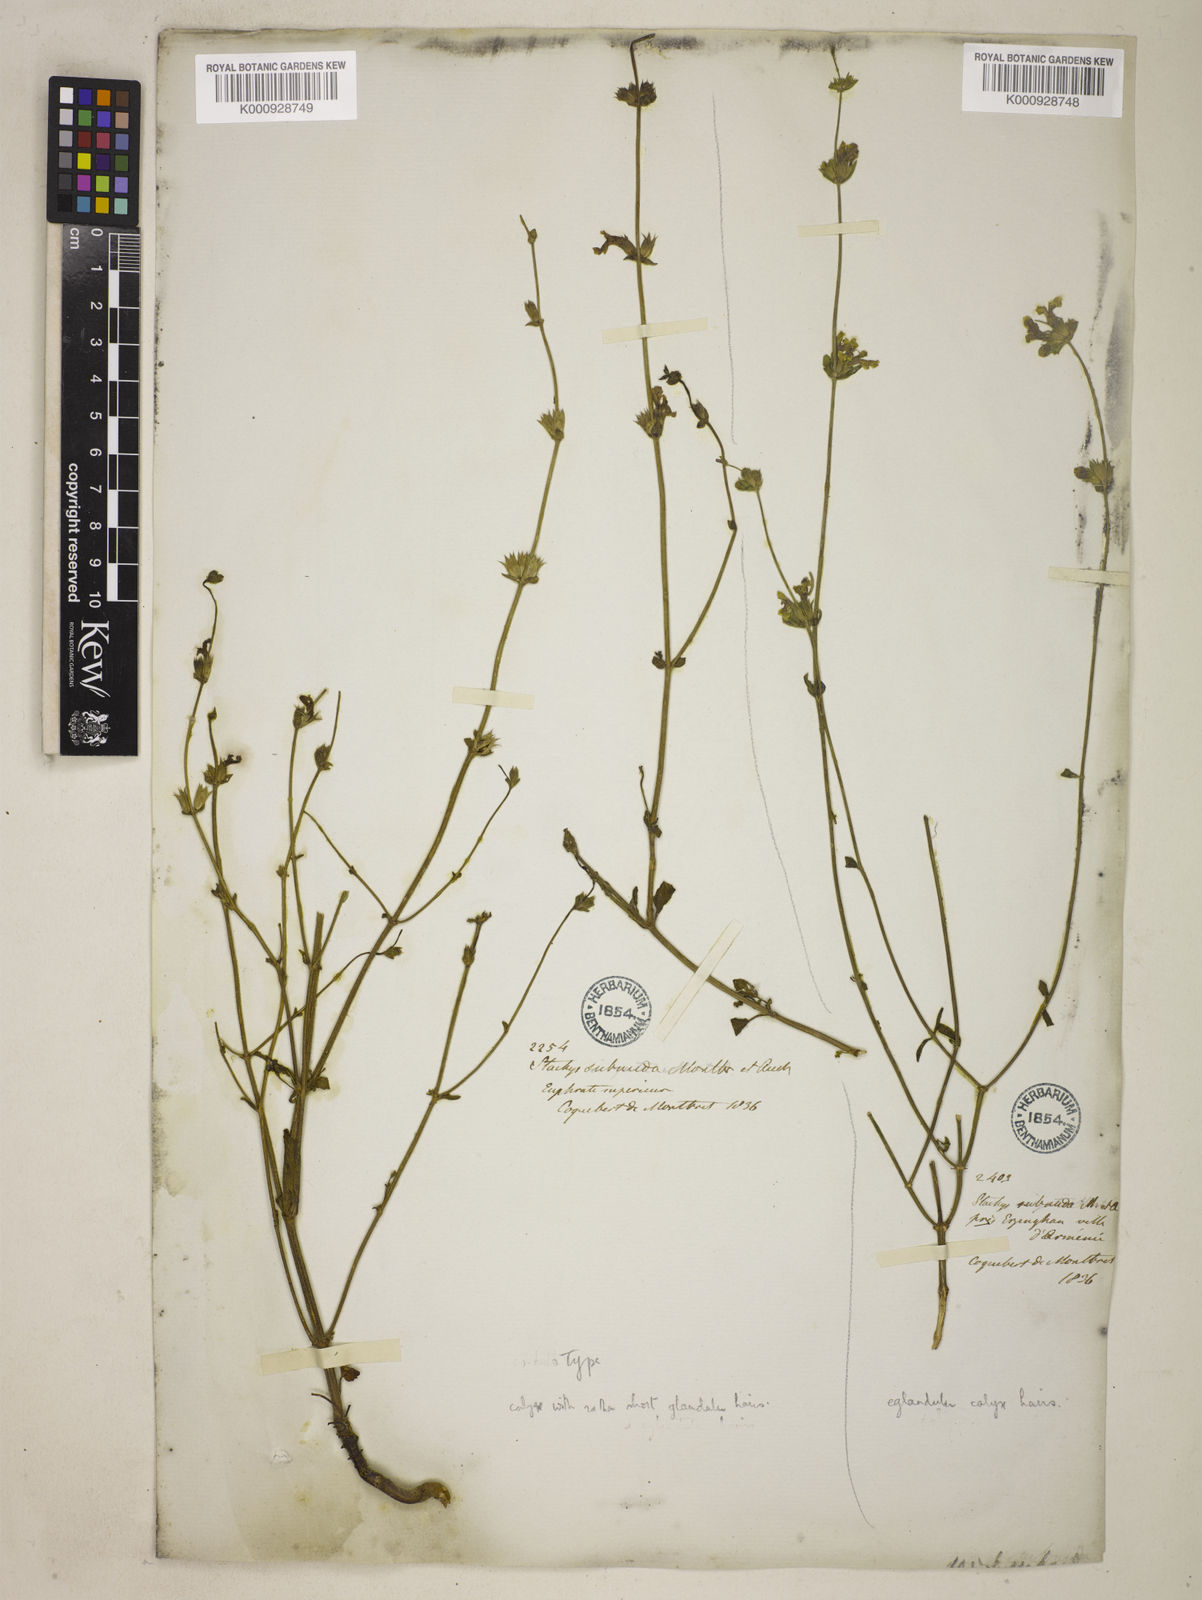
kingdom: Plantae
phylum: Tracheophyta
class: Magnoliopsida
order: Lamiales
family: Lamiaceae
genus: Stachys
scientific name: Stachys subnuda
